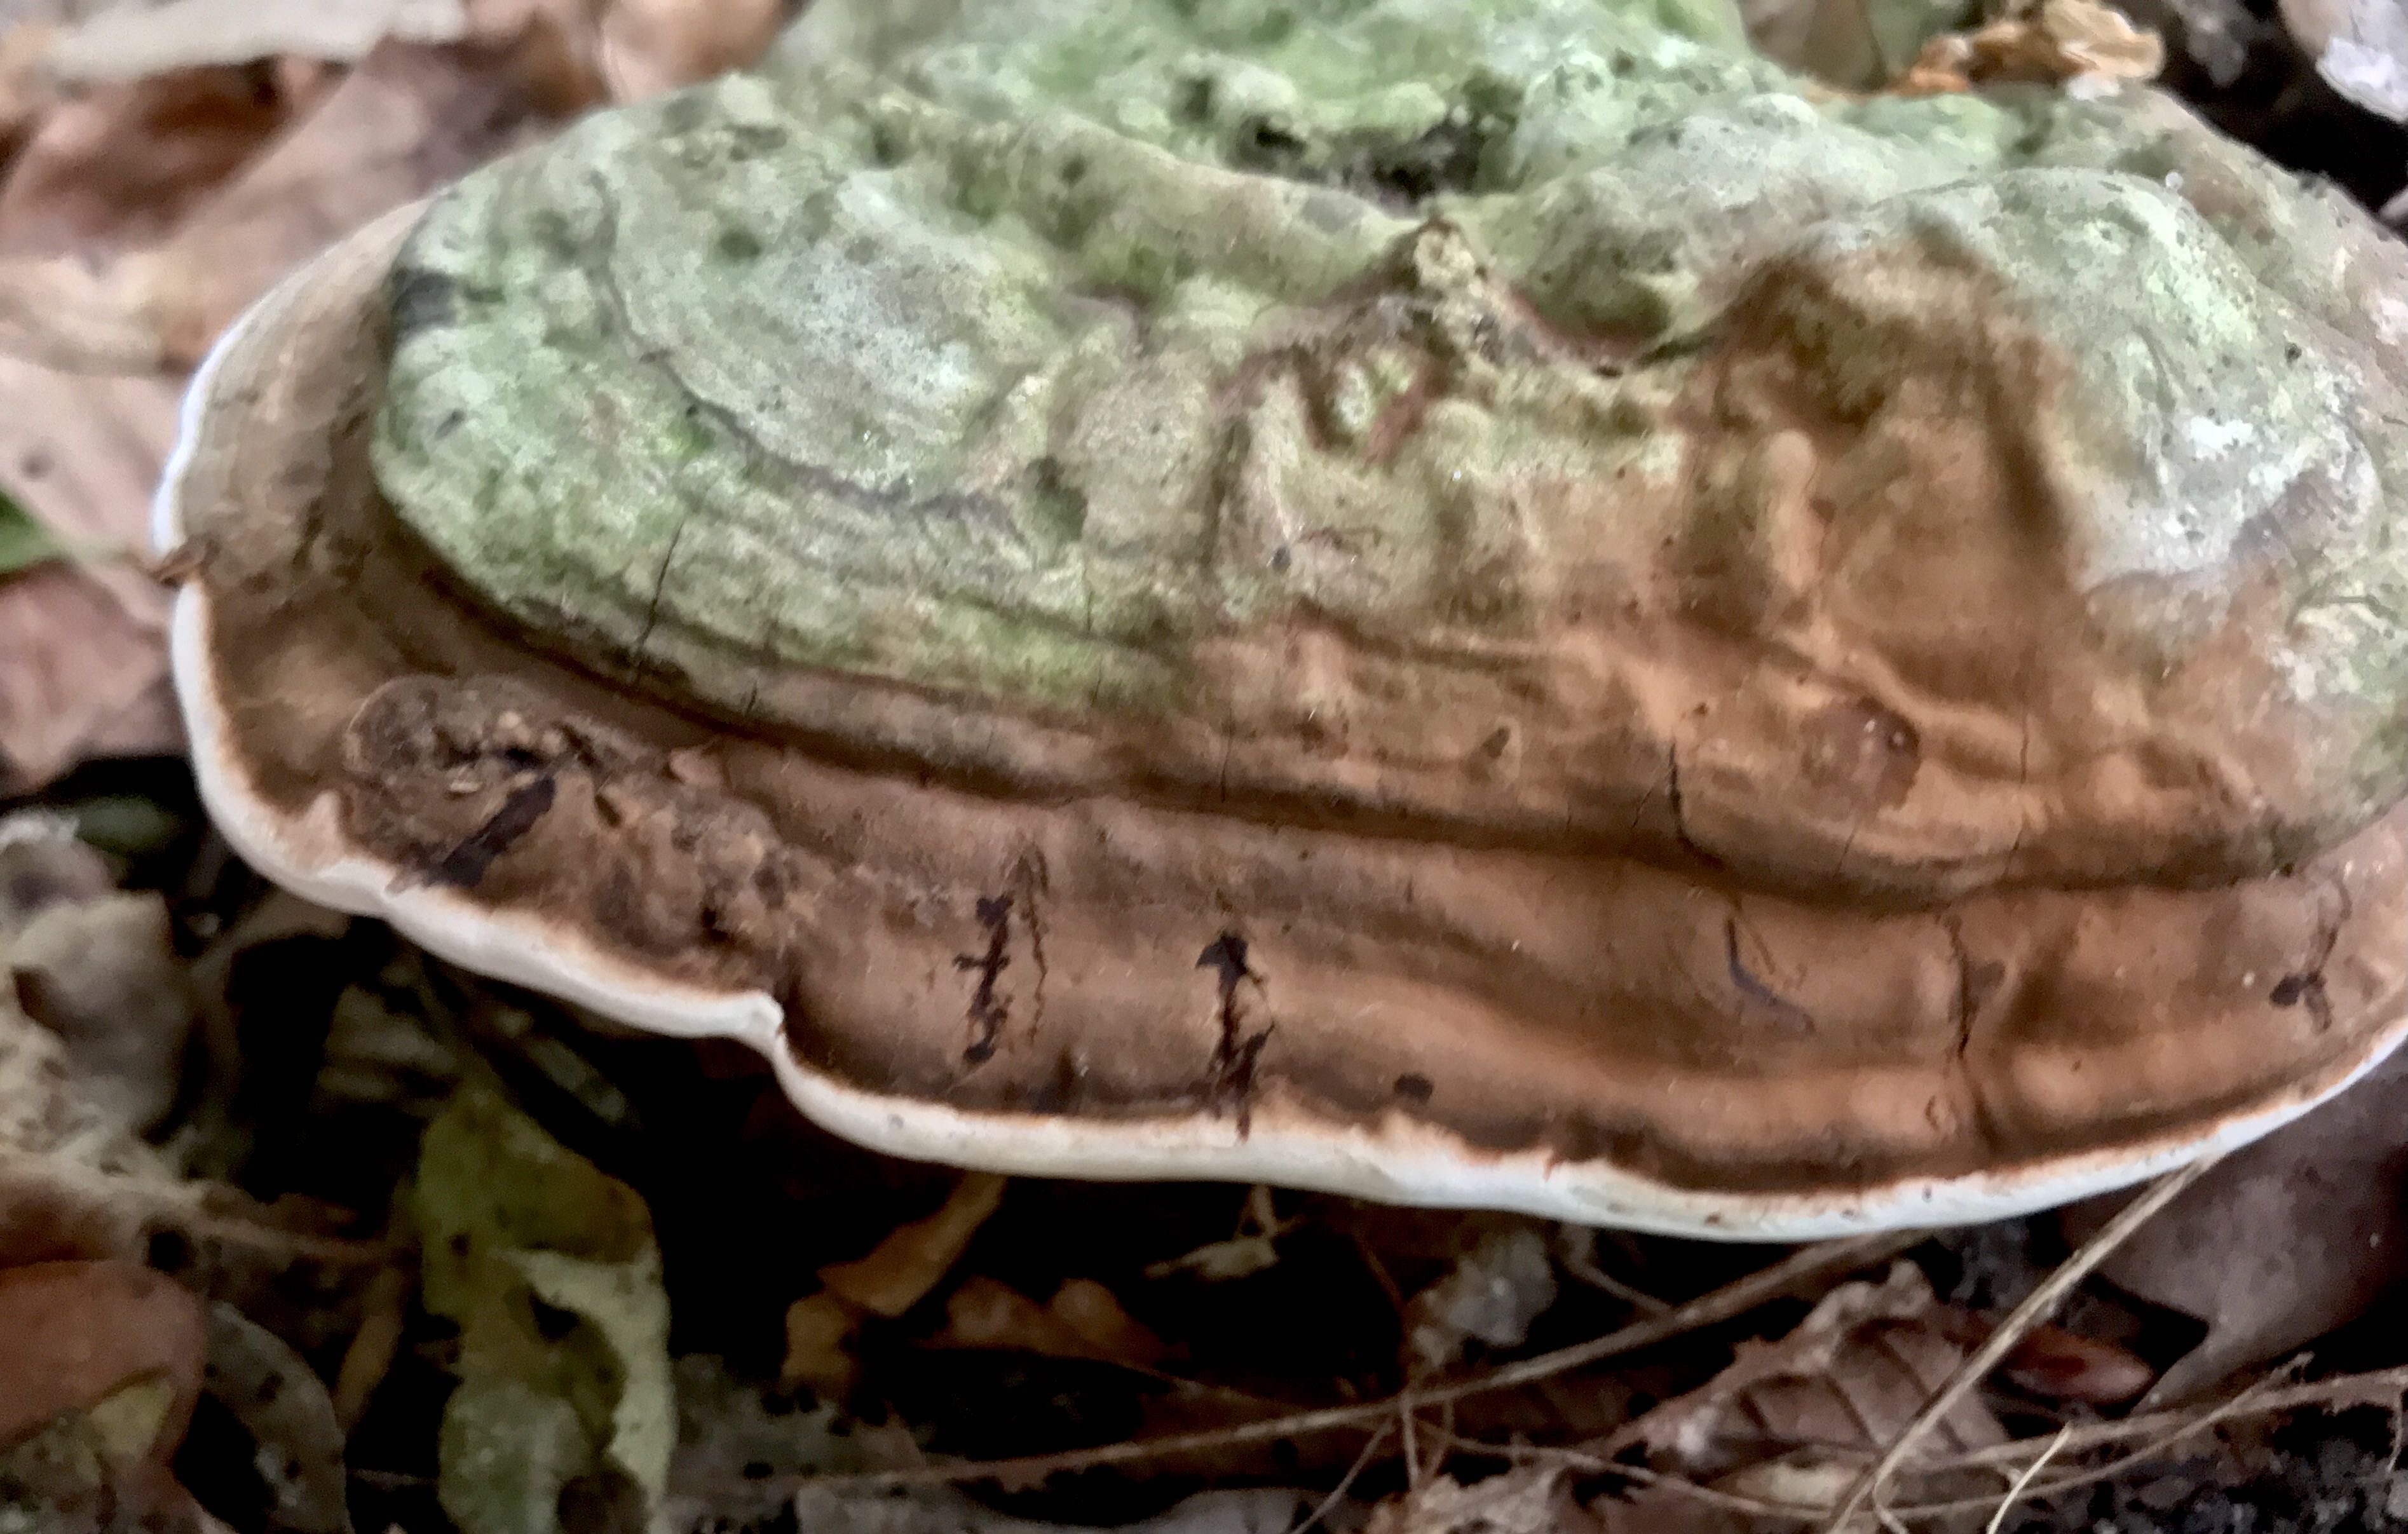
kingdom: Fungi
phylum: Basidiomycota
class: Agaricomycetes
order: Polyporales
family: Polyporaceae
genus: Ganoderma
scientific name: Ganoderma applanatum
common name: flad lakporesvamp
